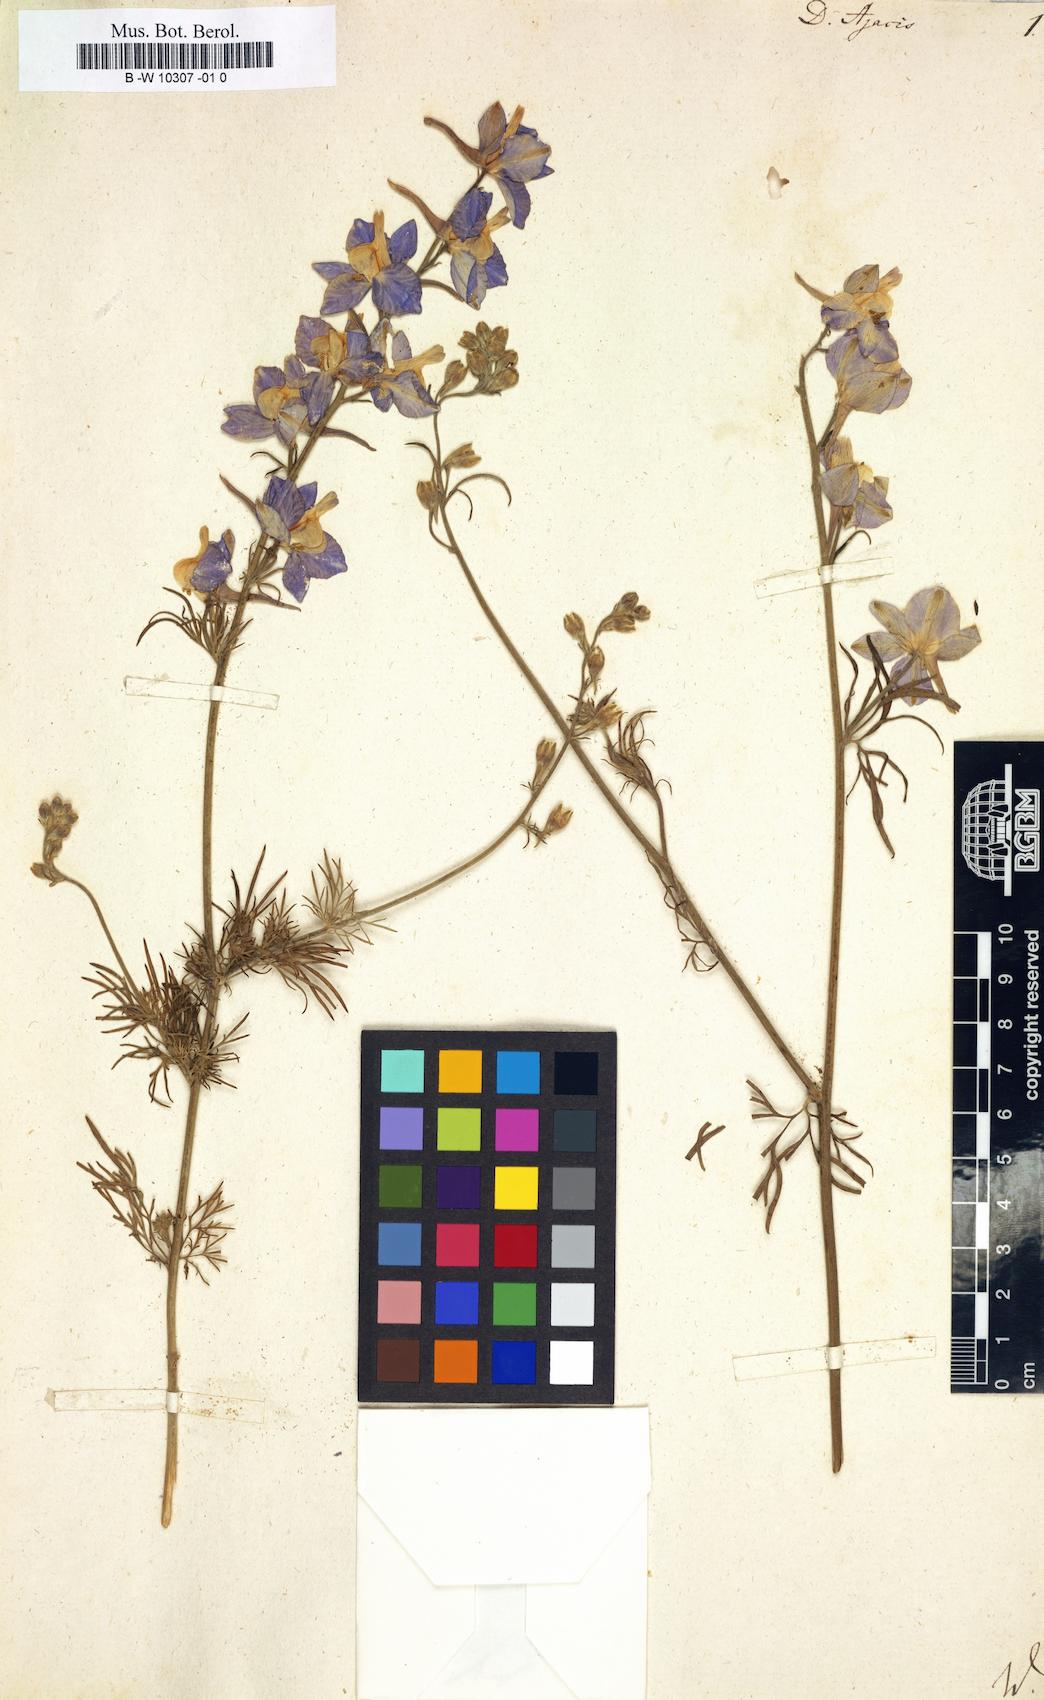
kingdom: Plantae
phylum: Tracheophyta
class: Magnoliopsida
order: Ranunculales
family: Ranunculaceae
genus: Delphinium
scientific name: Delphinium ajacis
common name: Doubtful knight's-spur
